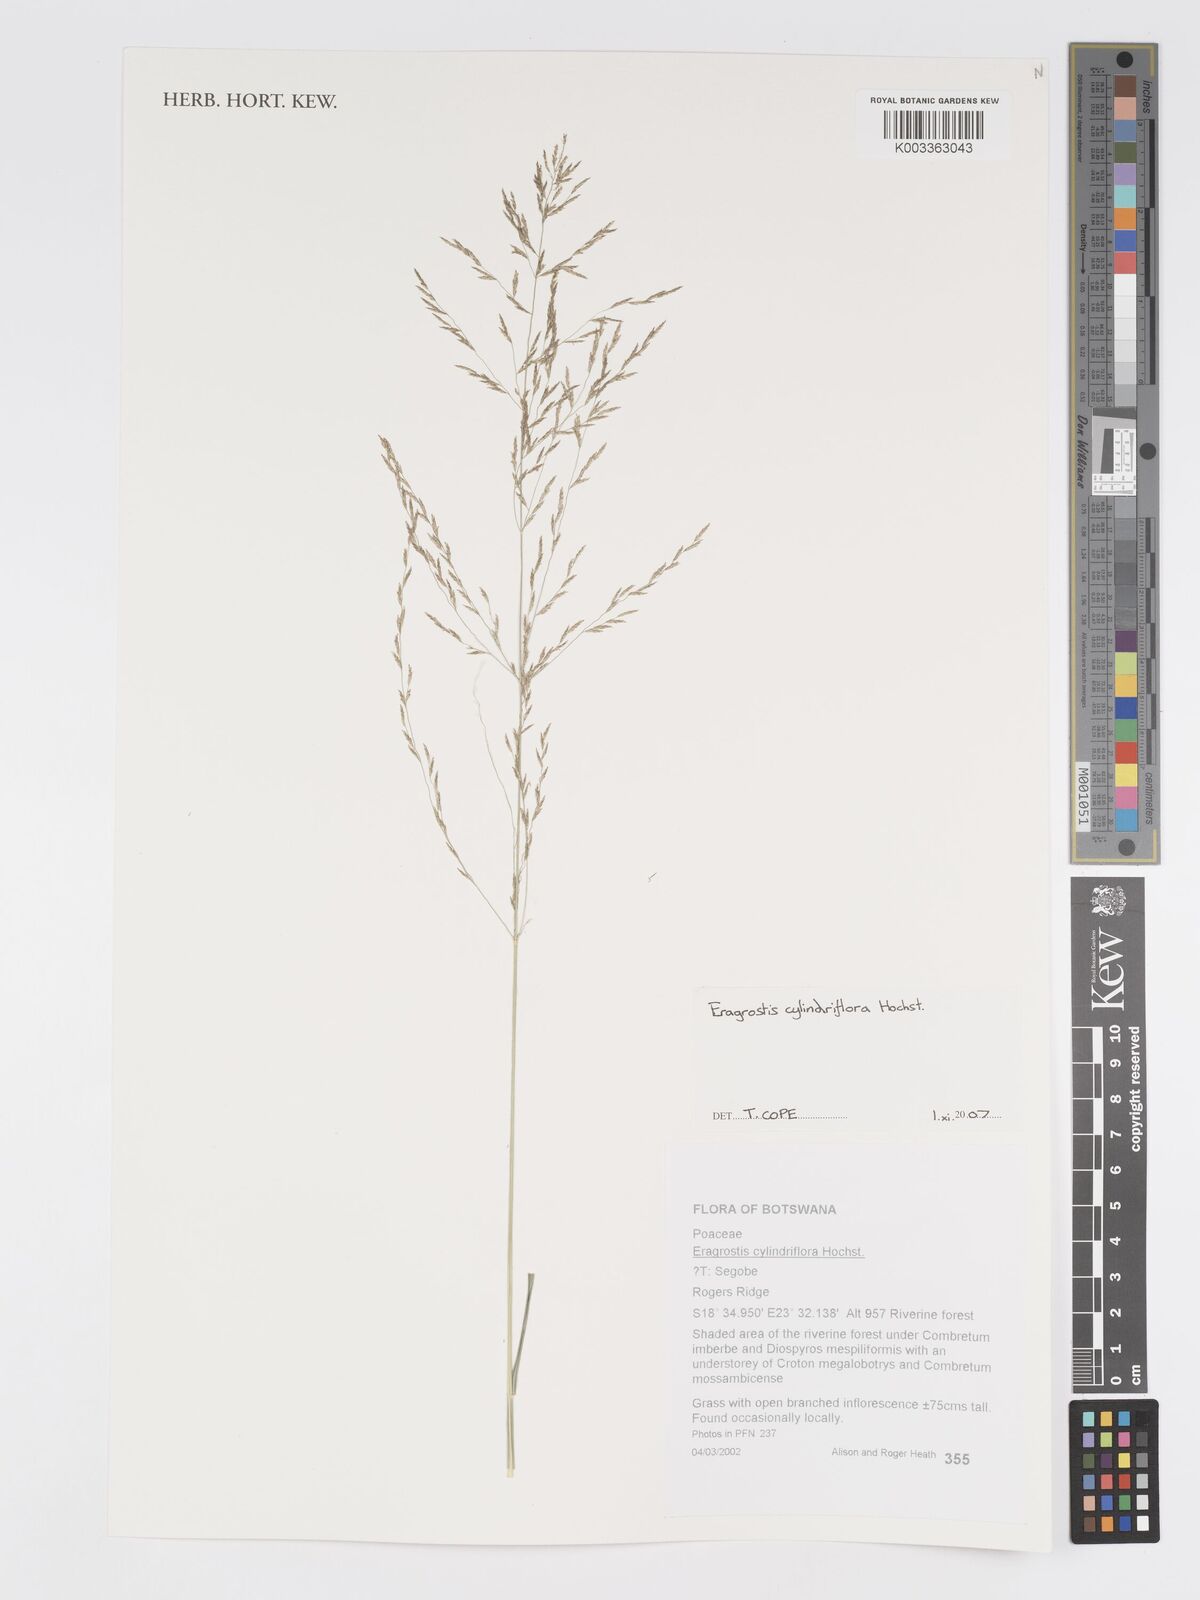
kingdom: Plantae
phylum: Tracheophyta
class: Liliopsida
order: Poales
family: Poaceae
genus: Eragrostis
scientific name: Eragrostis cylindriflora
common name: Cylinderflower lovegrass
